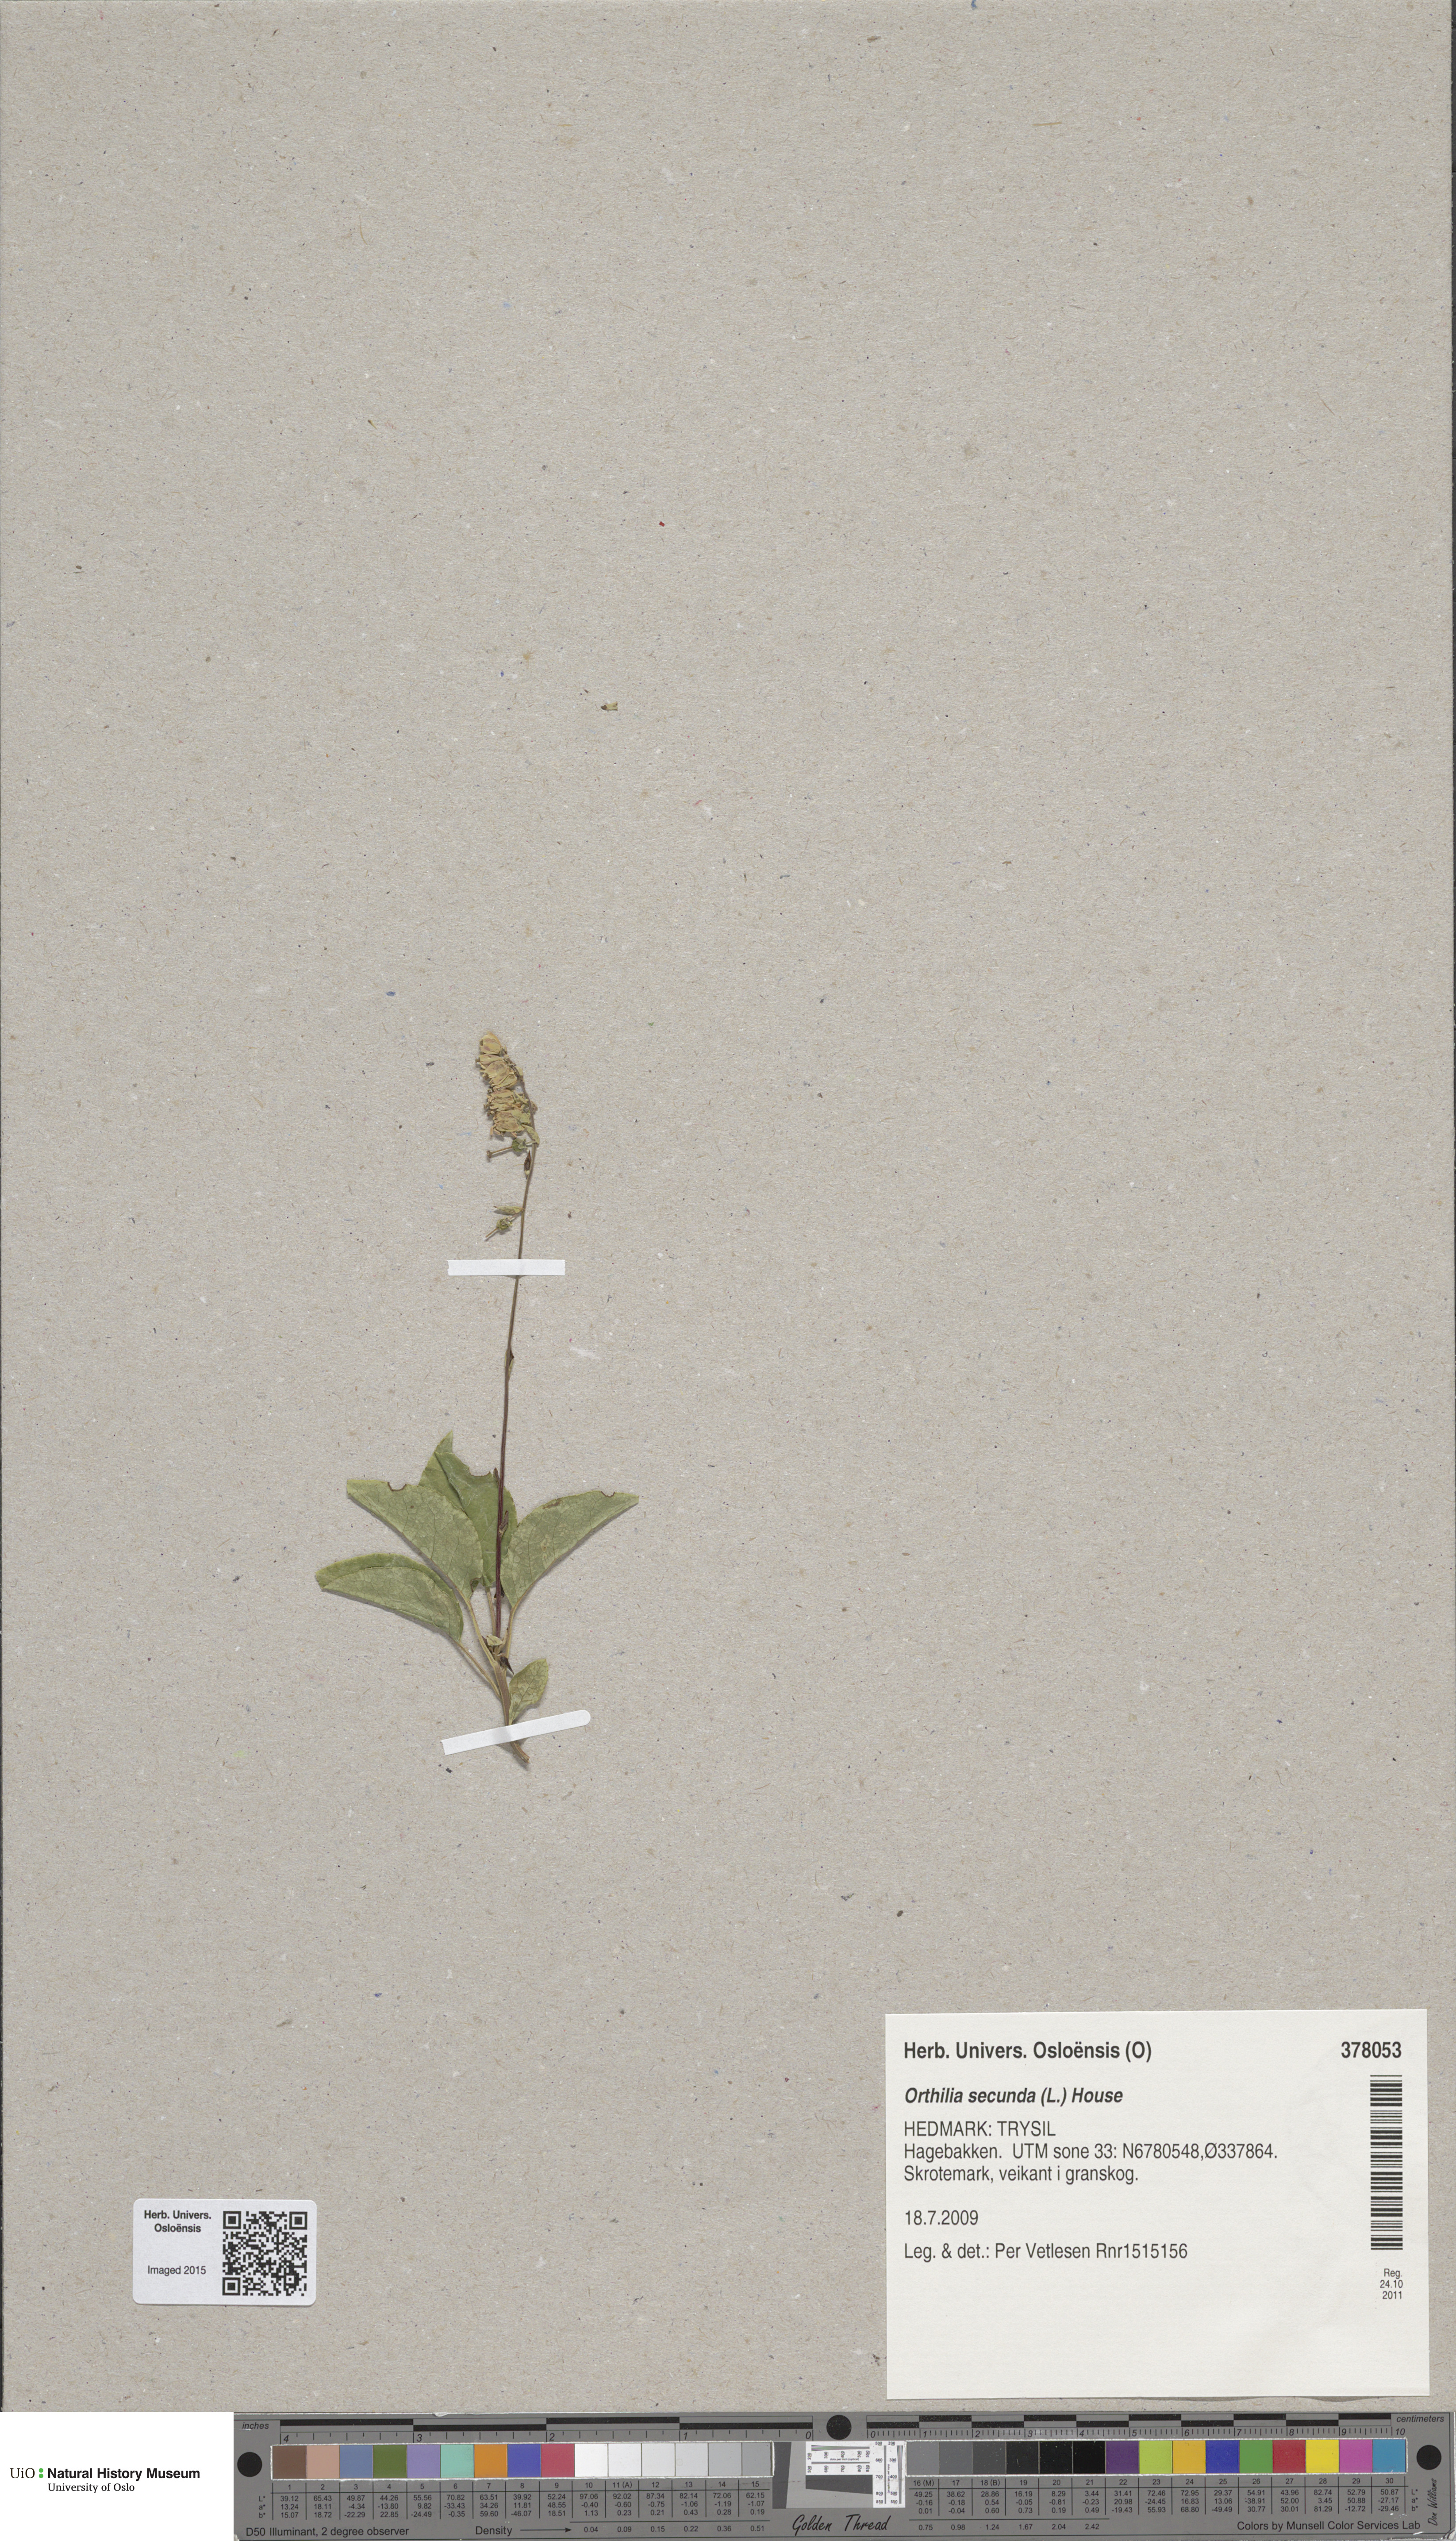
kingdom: Plantae
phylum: Tracheophyta
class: Magnoliopsida
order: Ericales
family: Ericaceae
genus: Orthilia
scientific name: Orthilia secunda
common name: One-sided orthilia
